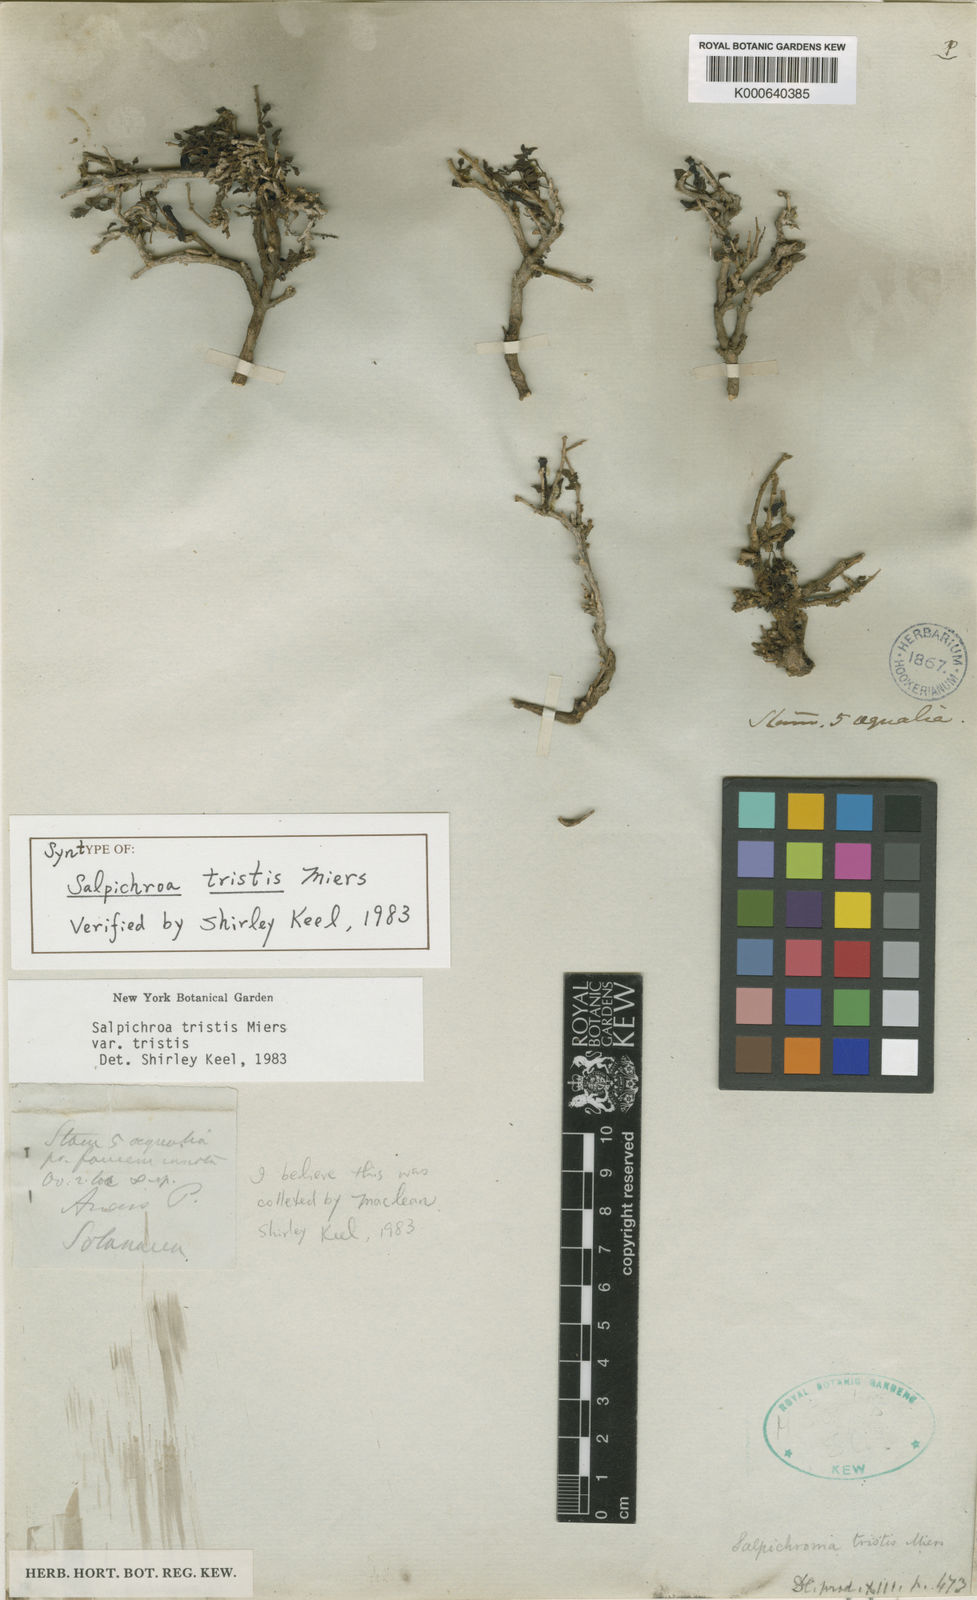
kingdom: Plantae
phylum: Tracheophyta
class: Magnoliopsida
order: Solanales
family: Solanaceae
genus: Salpichroa
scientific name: Salpichroa
